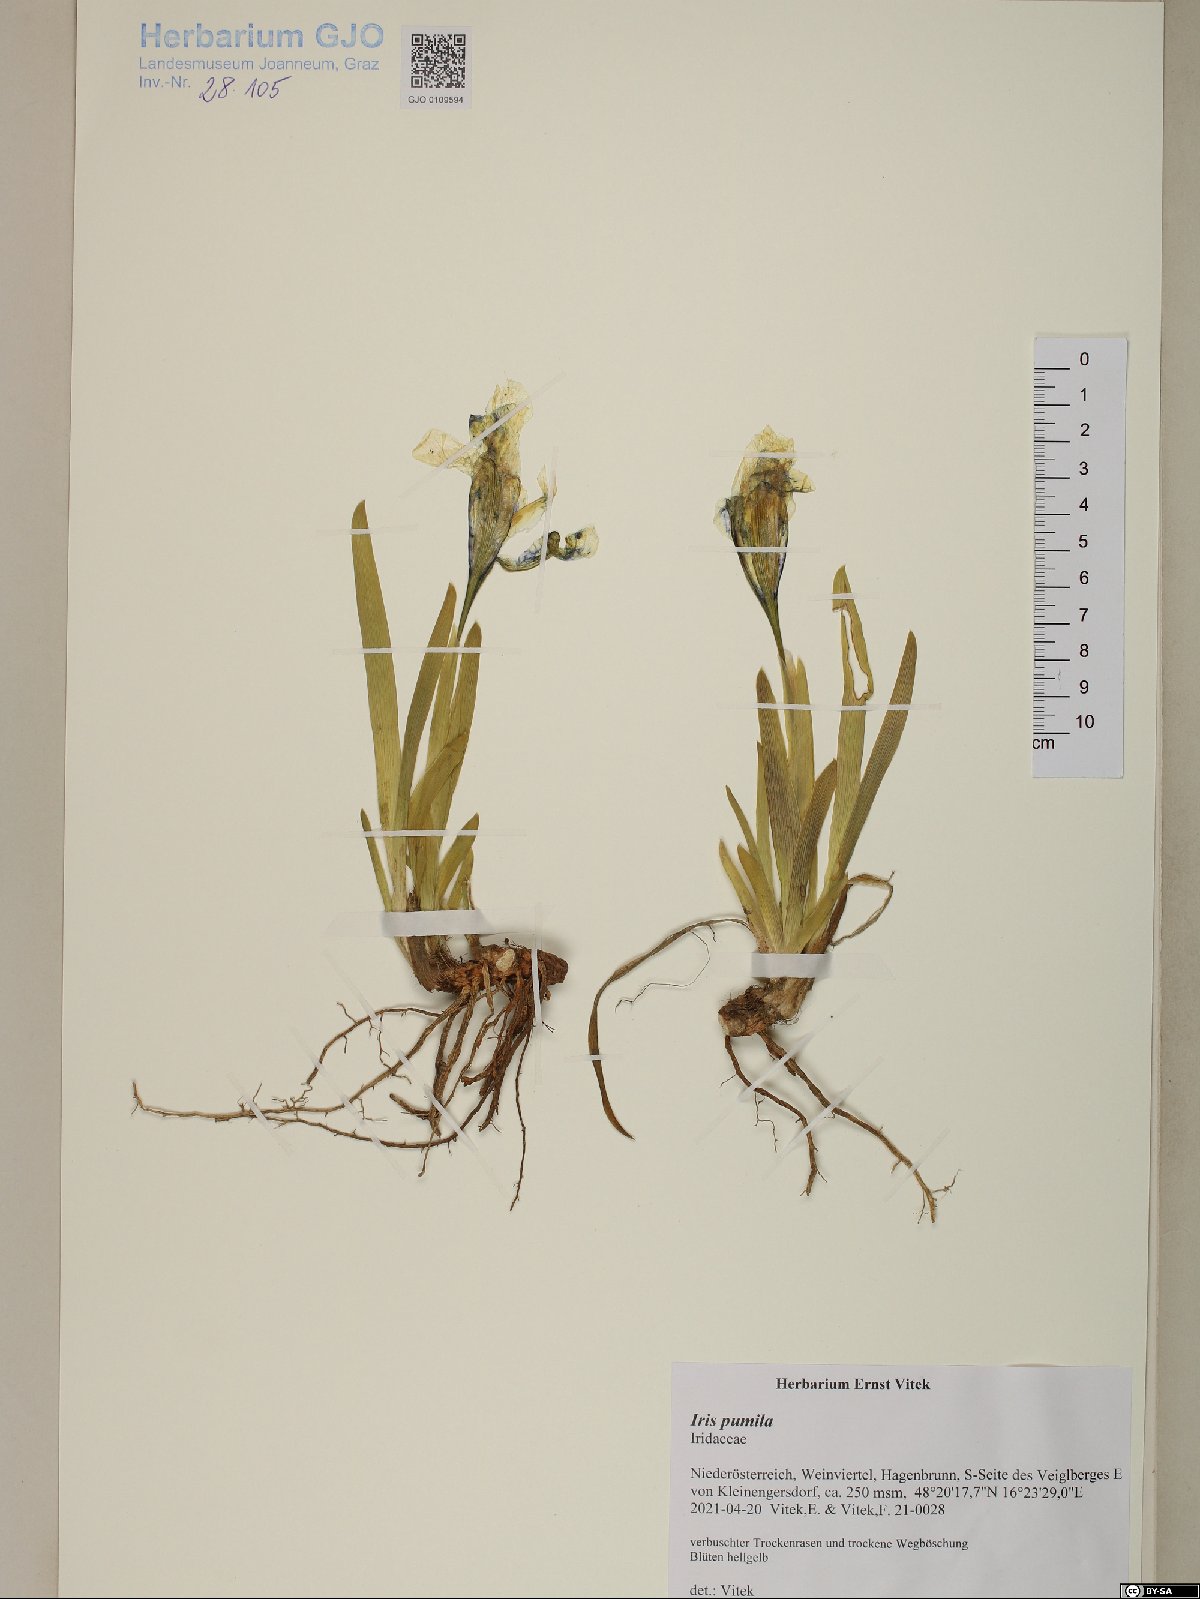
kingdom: Plantae
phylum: Tracheophyta
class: Liliopsida
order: Asparagales
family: Iridaceae
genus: Iris
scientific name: Iris pumila
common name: Dwarf iris
